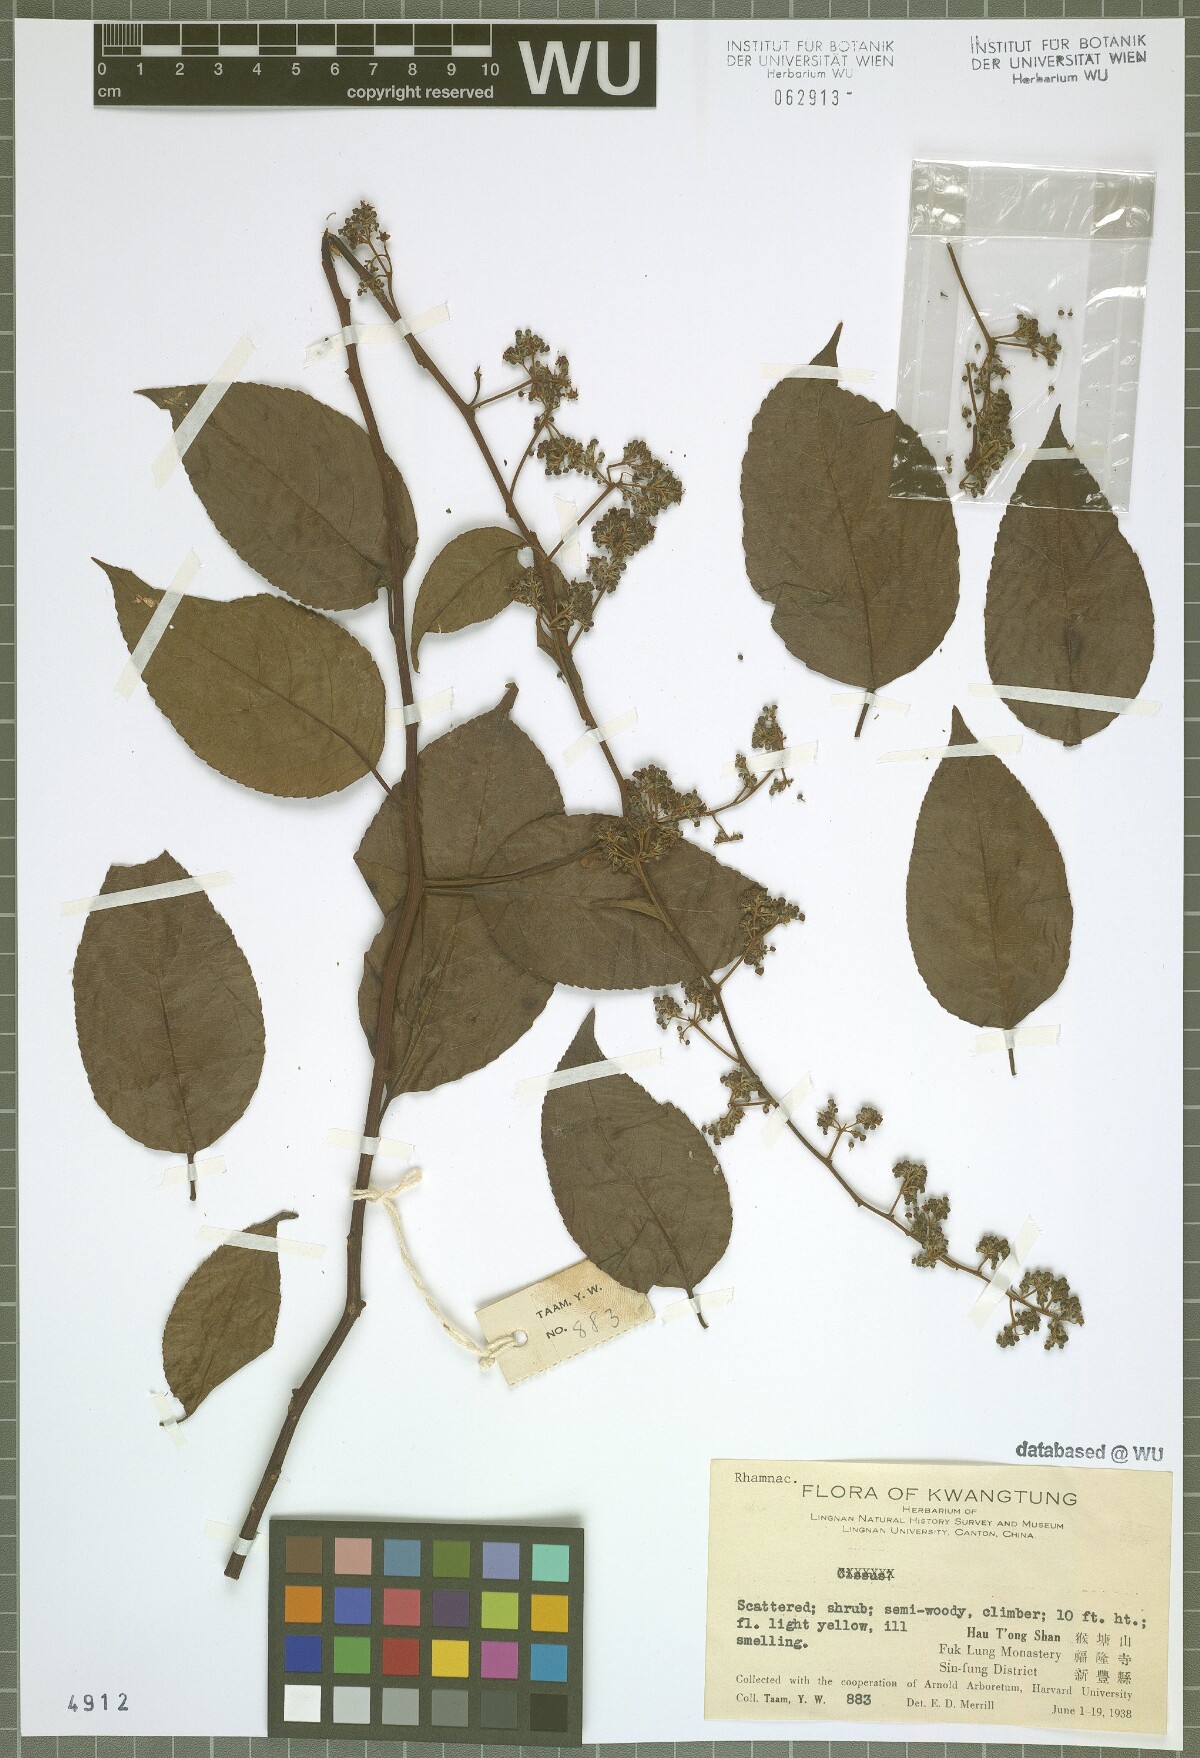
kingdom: Plantae
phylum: Tracheophyta
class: Magnoliopsida
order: Rosales
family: Rhamnaceae
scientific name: Rhamnaceae
